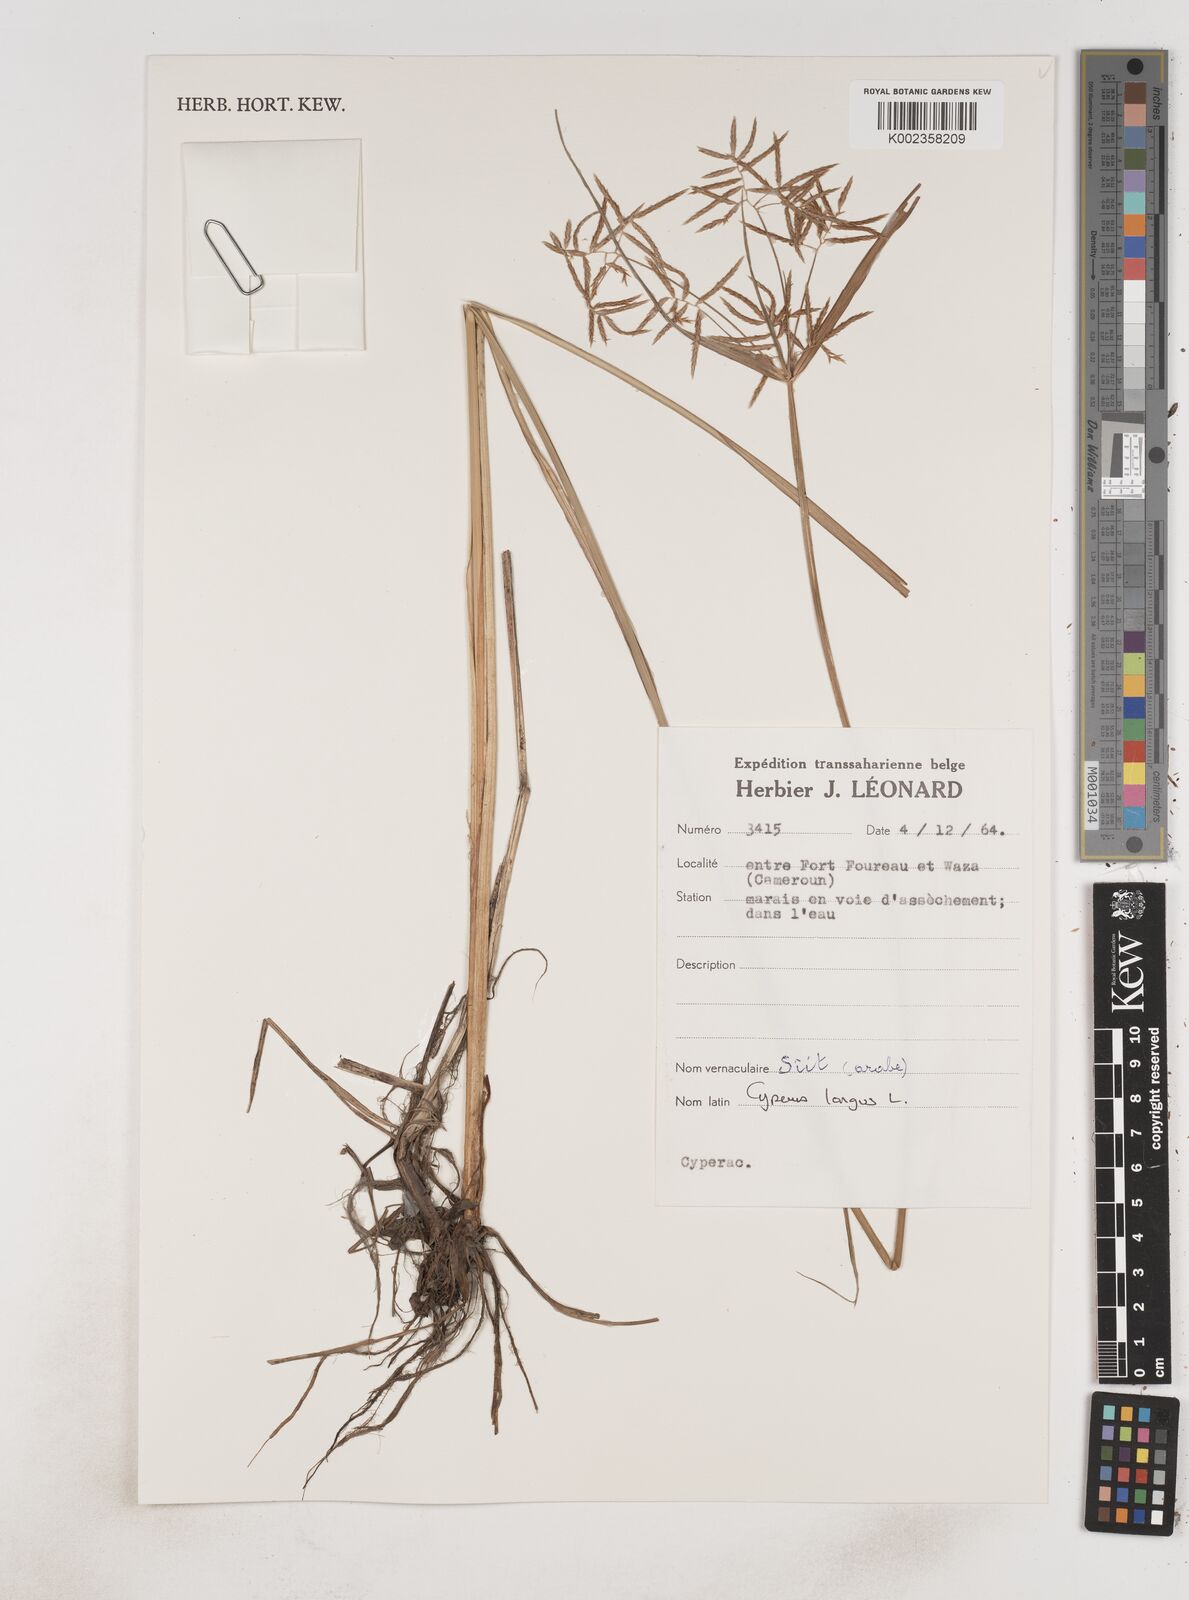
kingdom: Plantae
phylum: Tracheophyta
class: Liliopsida
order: Poales
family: Cyperaceae
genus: Cyperus
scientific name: Cyperus longus
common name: Galingale
